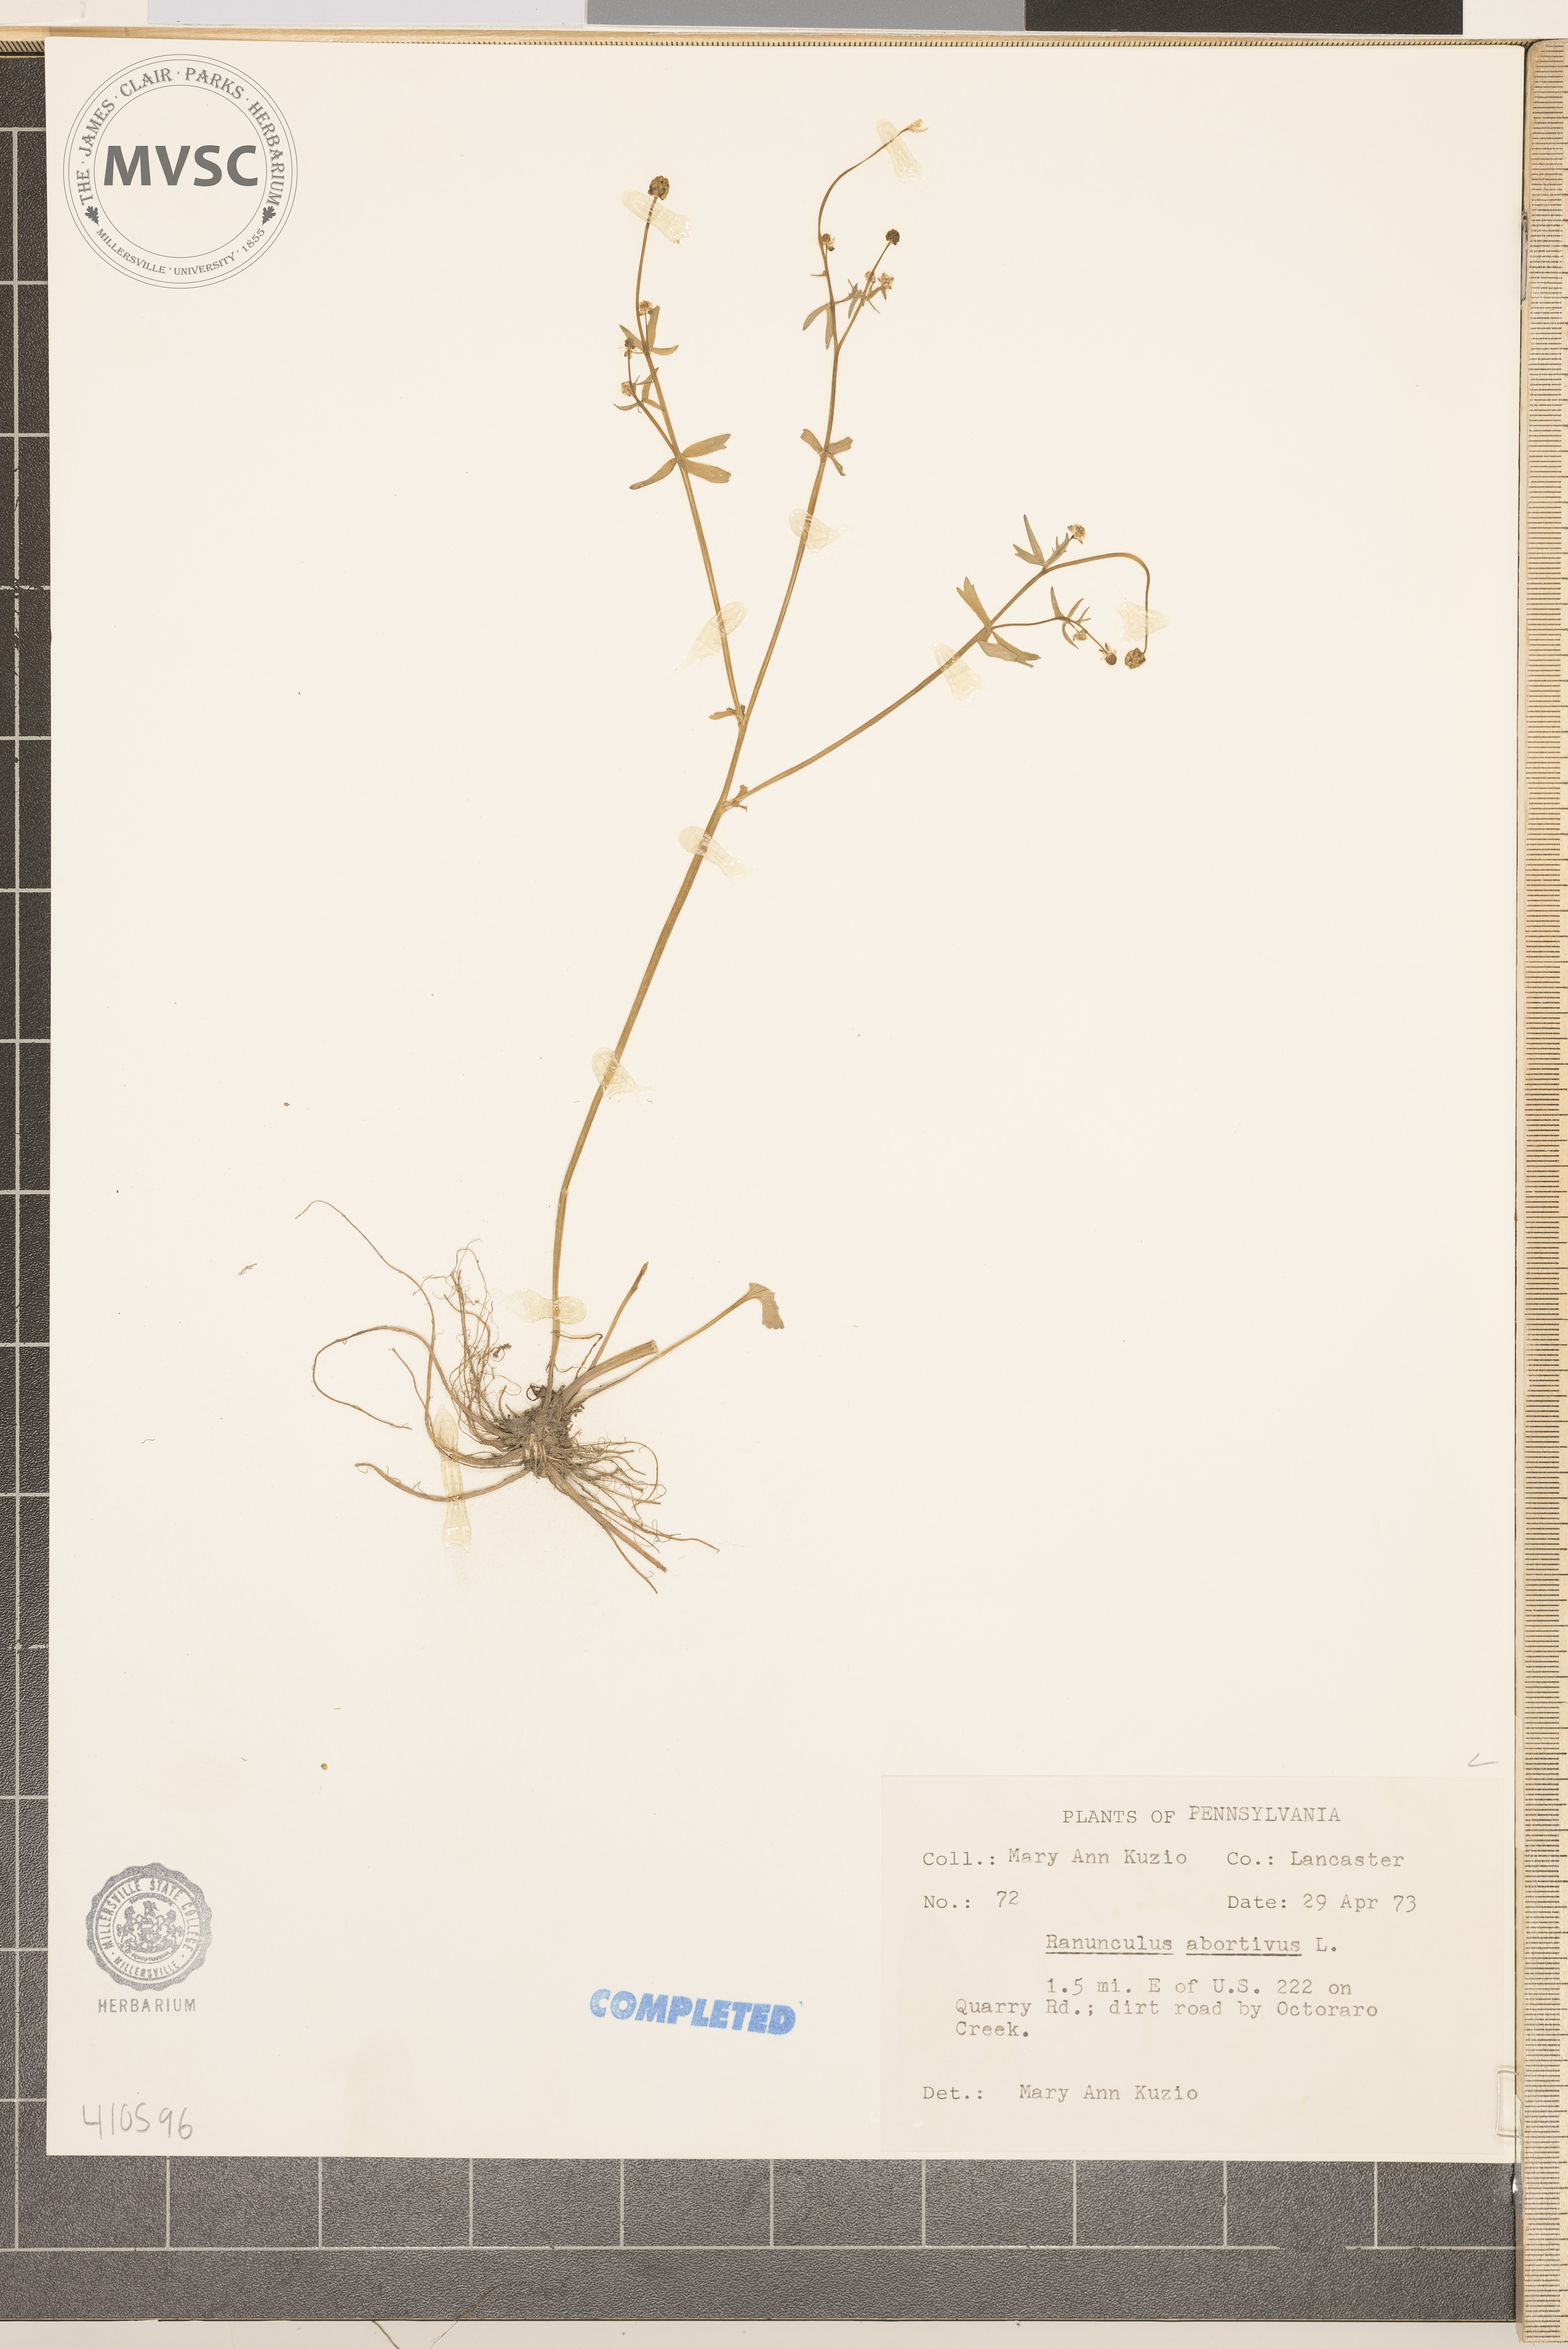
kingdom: Plantae
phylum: Tracheophyta
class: Magnoliopsida
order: Ranunculales
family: Ranunculaceae
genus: Ranunculus
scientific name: Ranunculus abortivus
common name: Early wood buttercup
